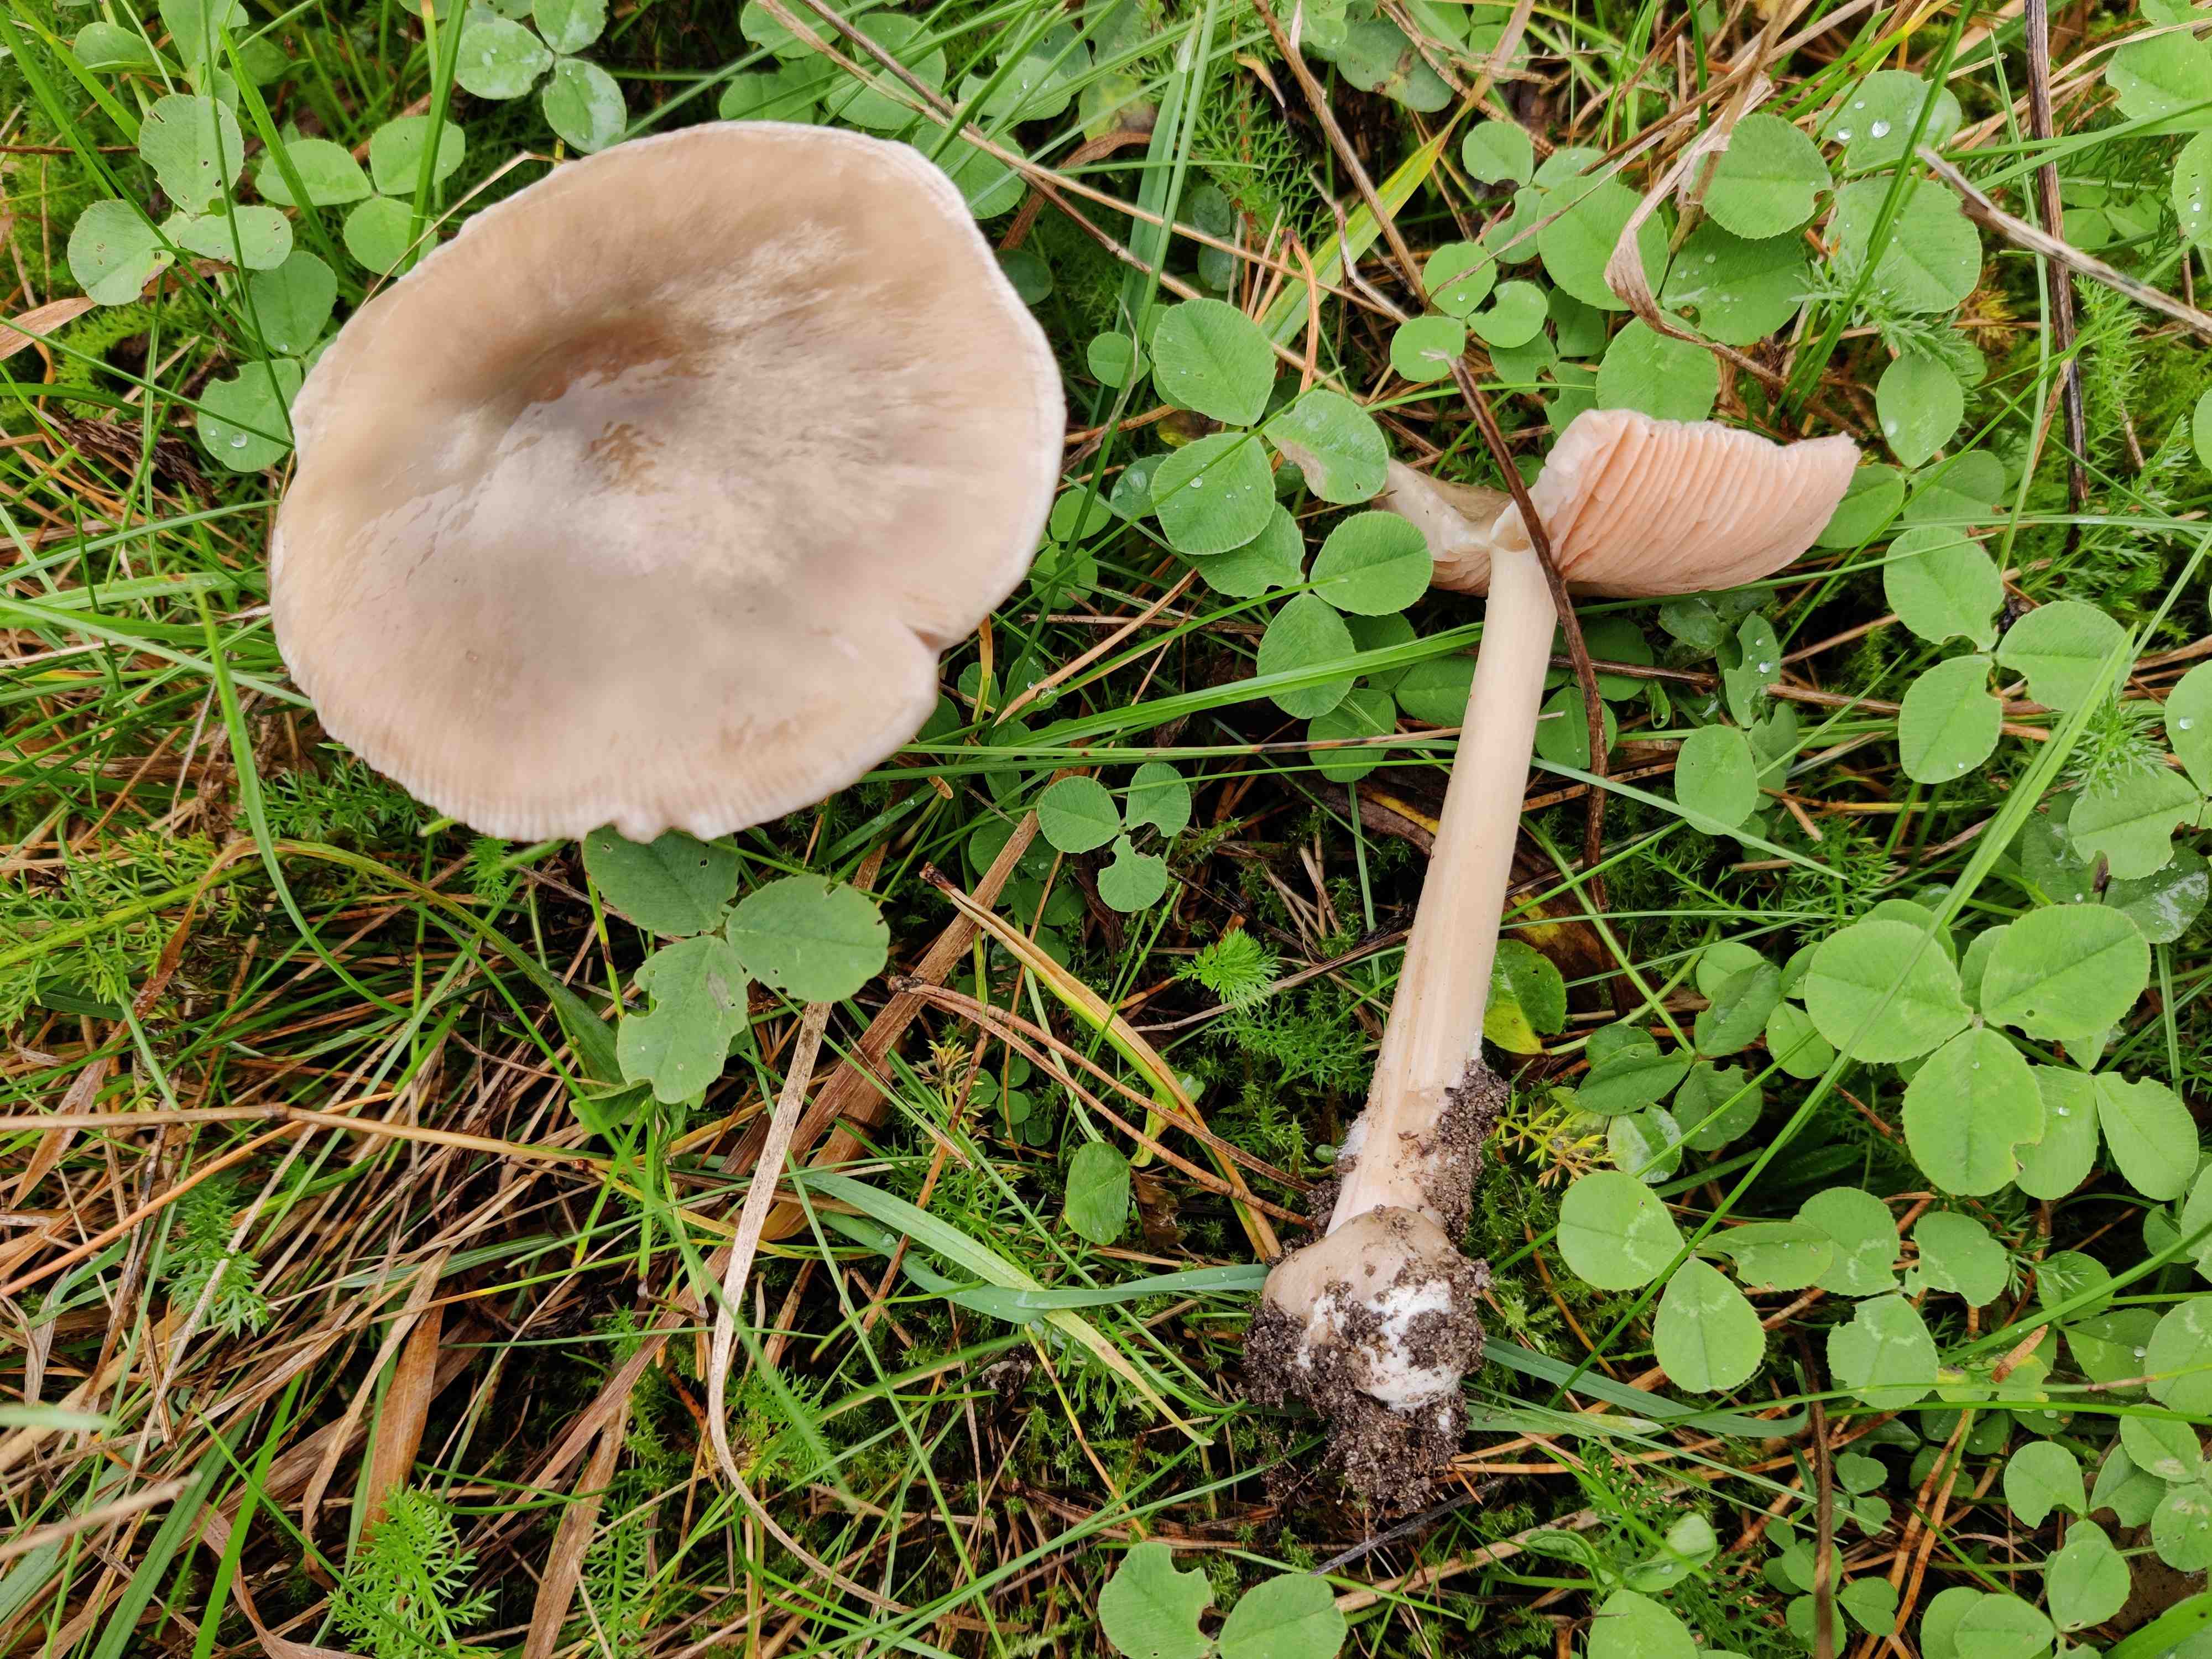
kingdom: Fungi
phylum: Basidiomycota
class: Agaricomycetes
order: Agaricales
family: Pluteaceae
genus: Volvopluteus
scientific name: Volvopluteus gloiocephalus
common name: høj posesvamp
